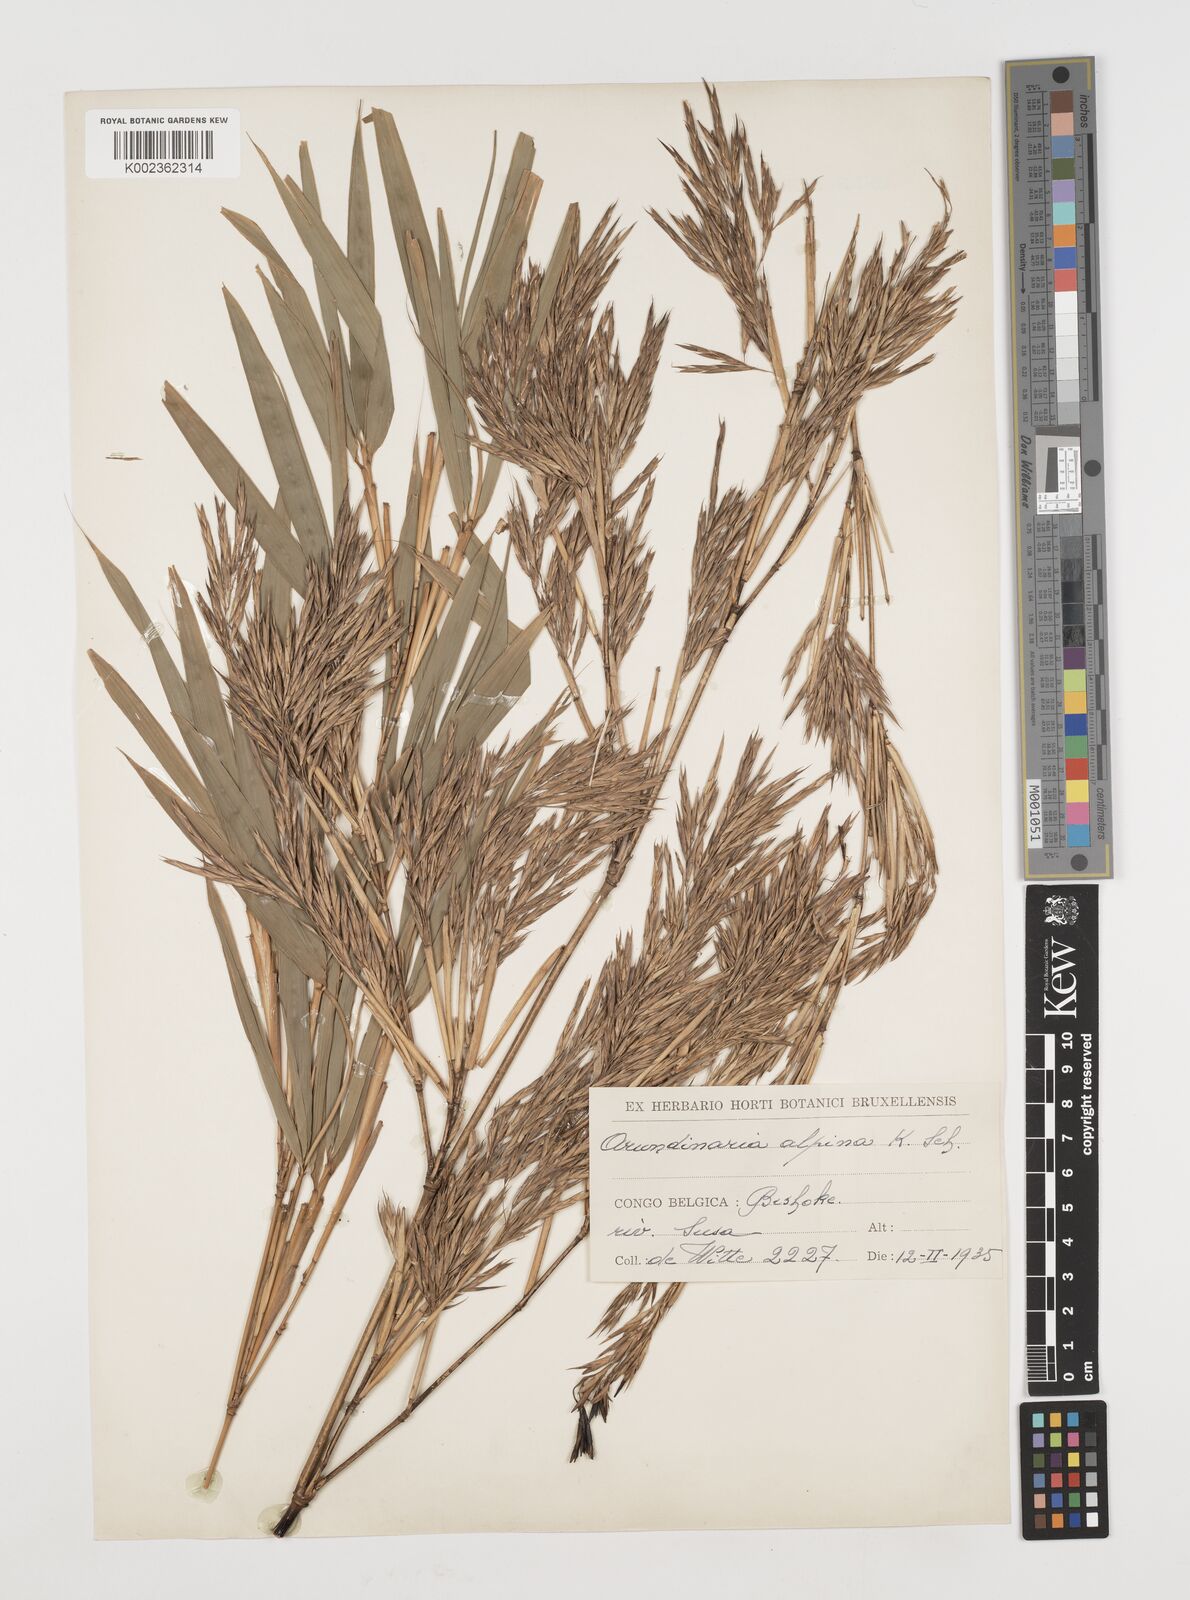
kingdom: Plantae
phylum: Tracheophyta
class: Liliopsida
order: Poales
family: Poaceae
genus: Oldeania
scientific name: Oldeania alpina
